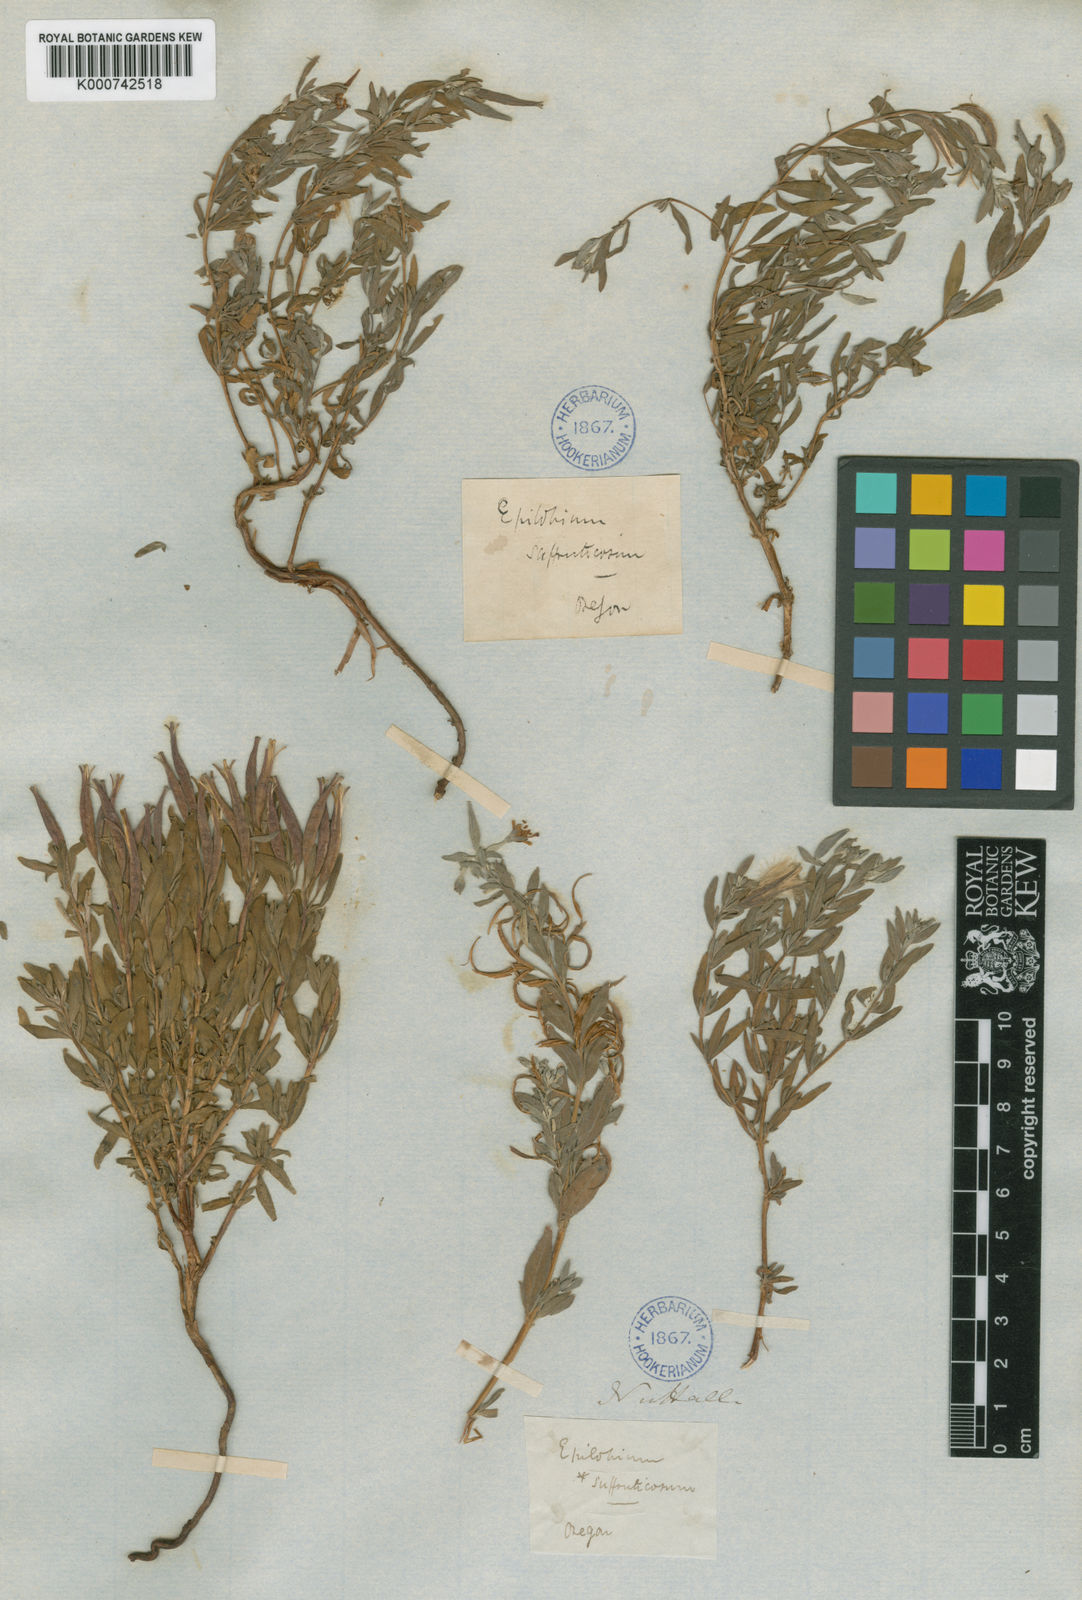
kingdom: Plantae
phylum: Tracheophyta
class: Magnoliopsida
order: Myrtales
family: Onagraceae
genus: Epilobium
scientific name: Epilobium suffruticosum
